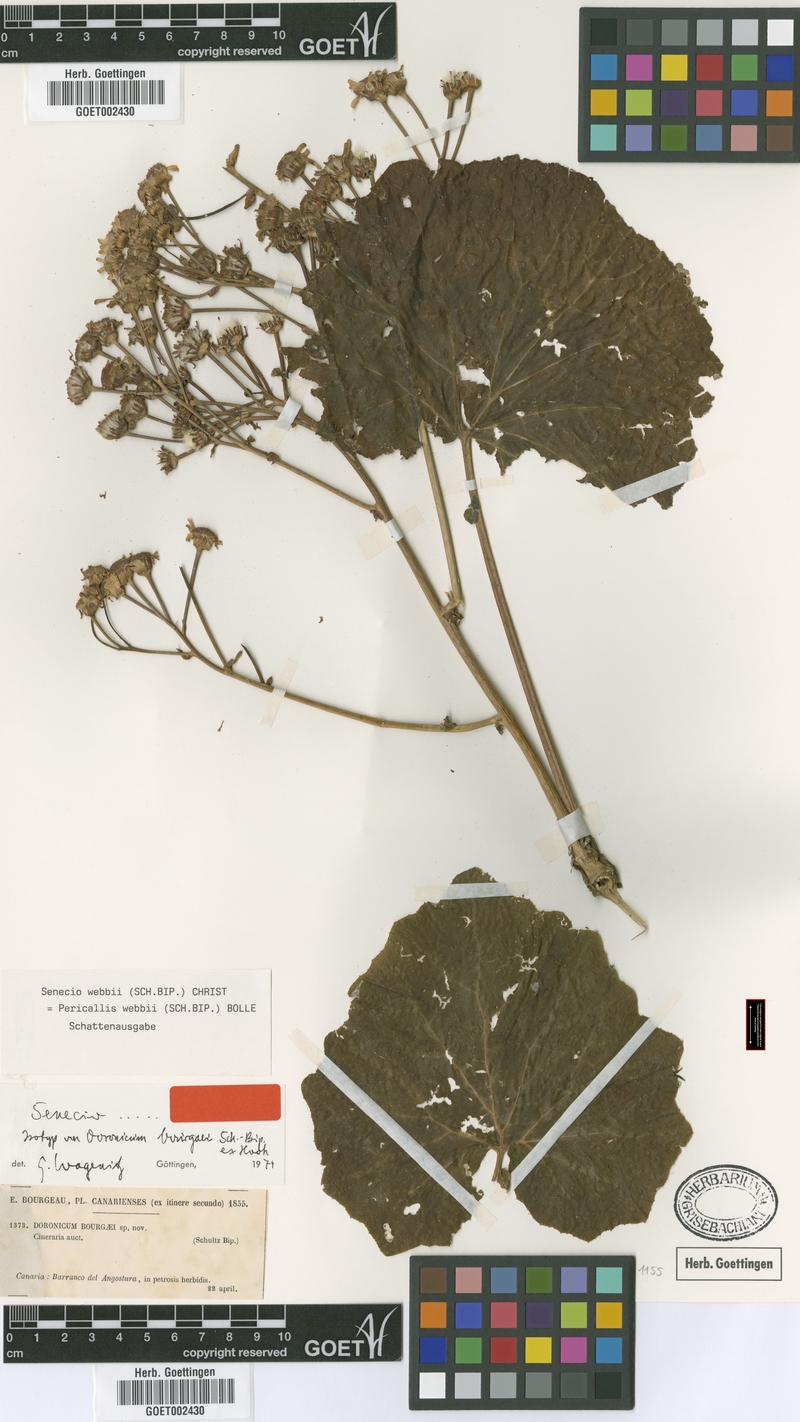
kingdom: Plantae
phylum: Tracheophyta
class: Magnoliopsida
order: Asterales
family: Asteraceae
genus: Pericallis
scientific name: Pericallis webbii
